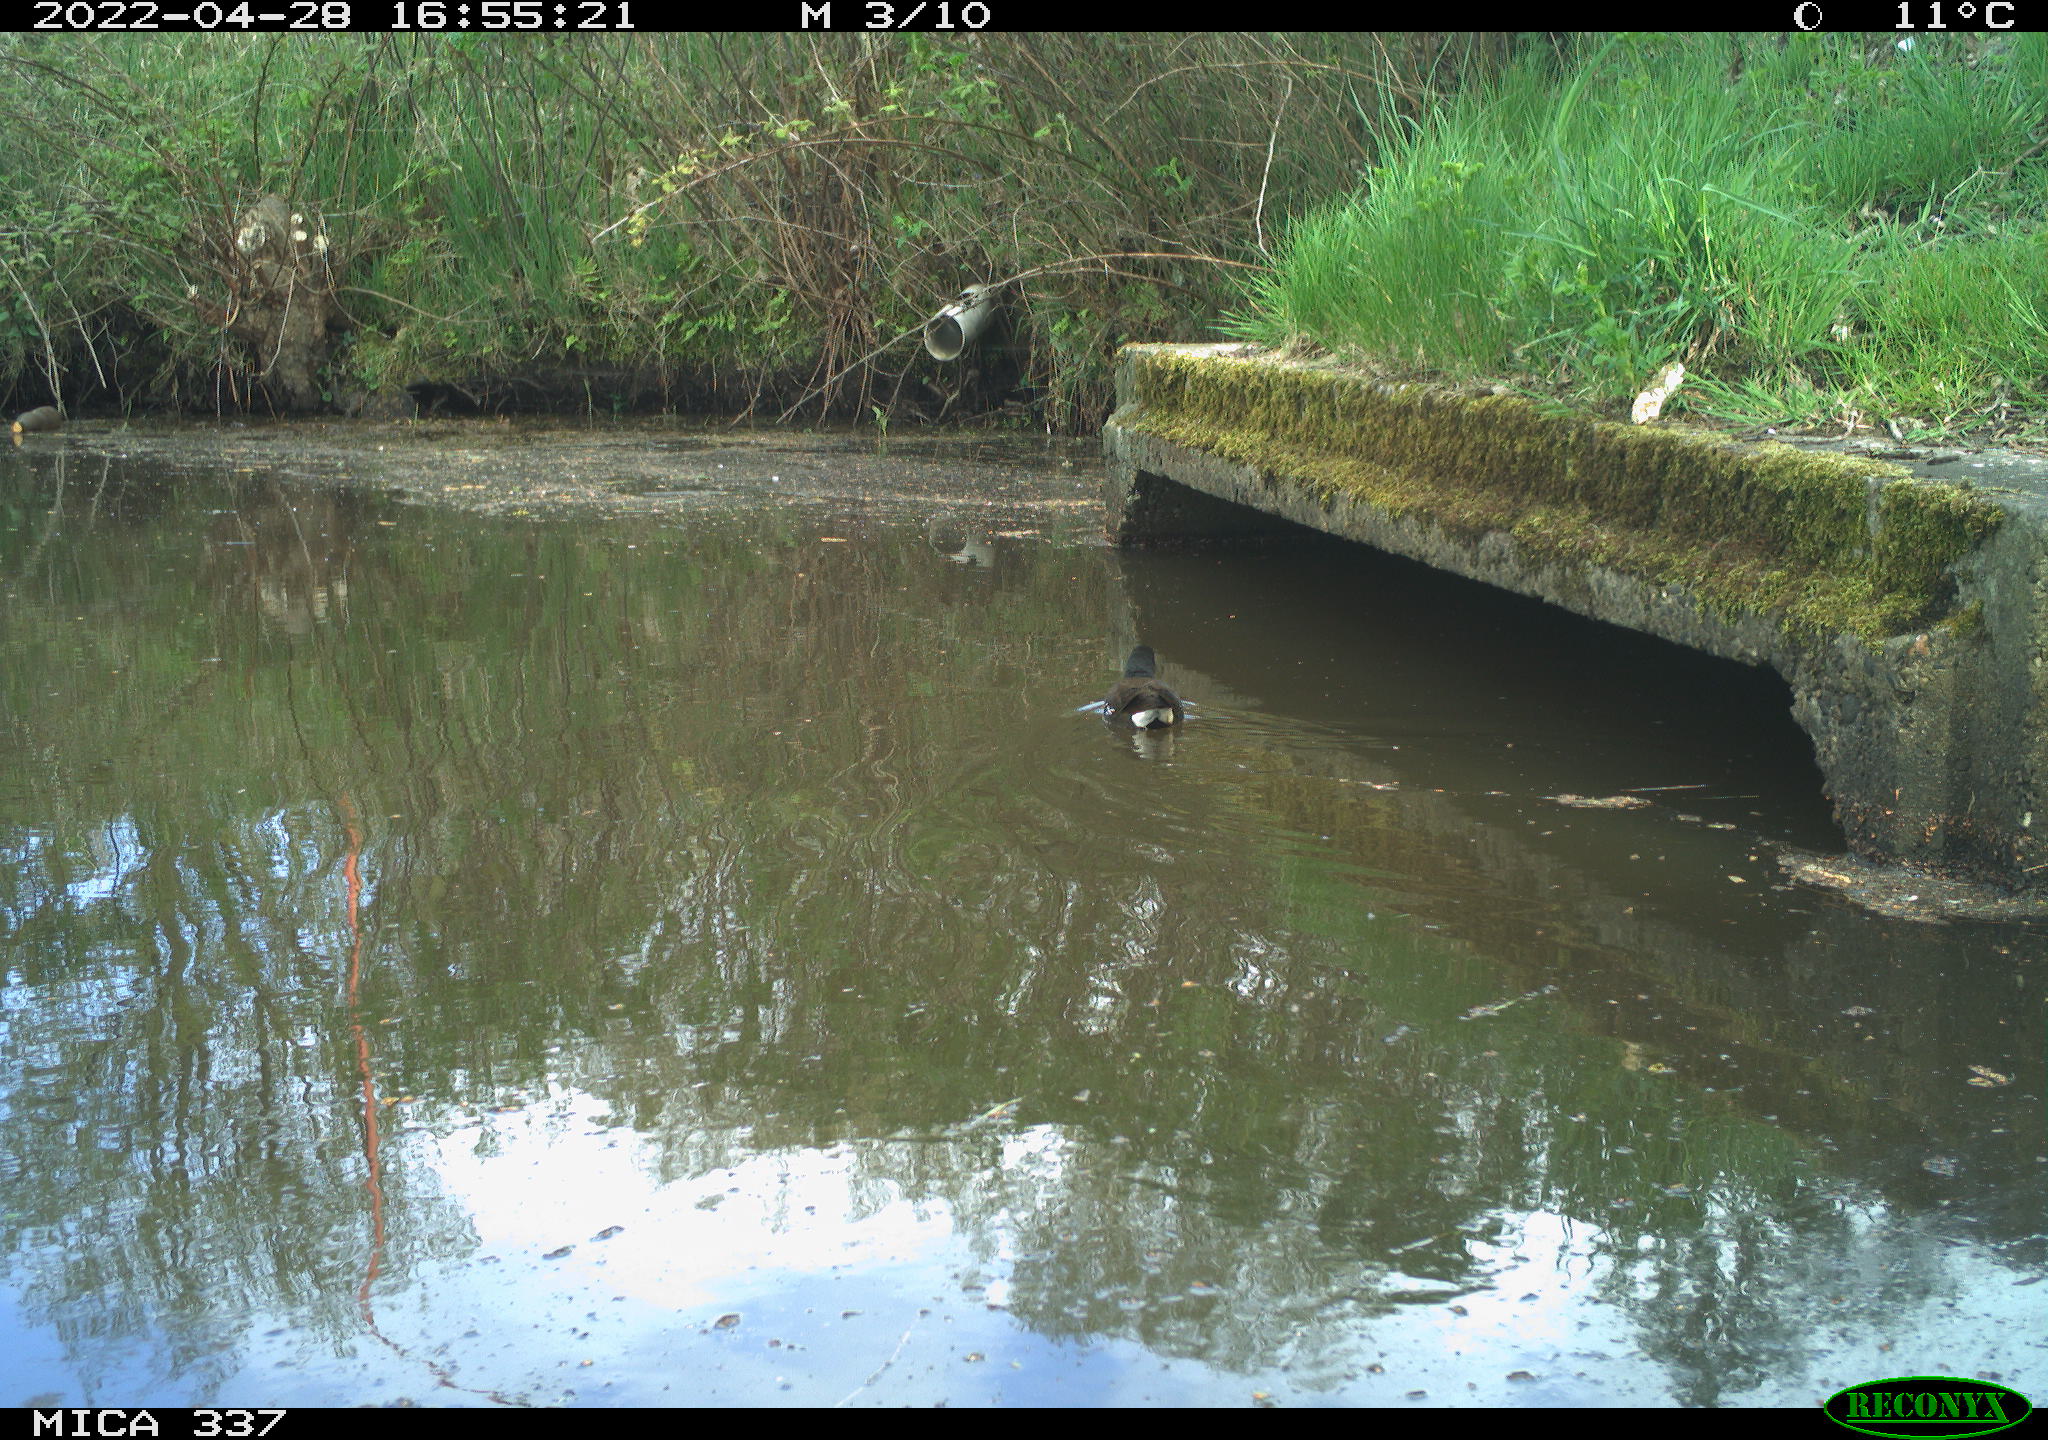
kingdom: Animalia
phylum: Chordata
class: Aves
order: Gruiformes
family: Rallidae
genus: Gallinula
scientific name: Gallinula chloropus
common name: Common moorhen
